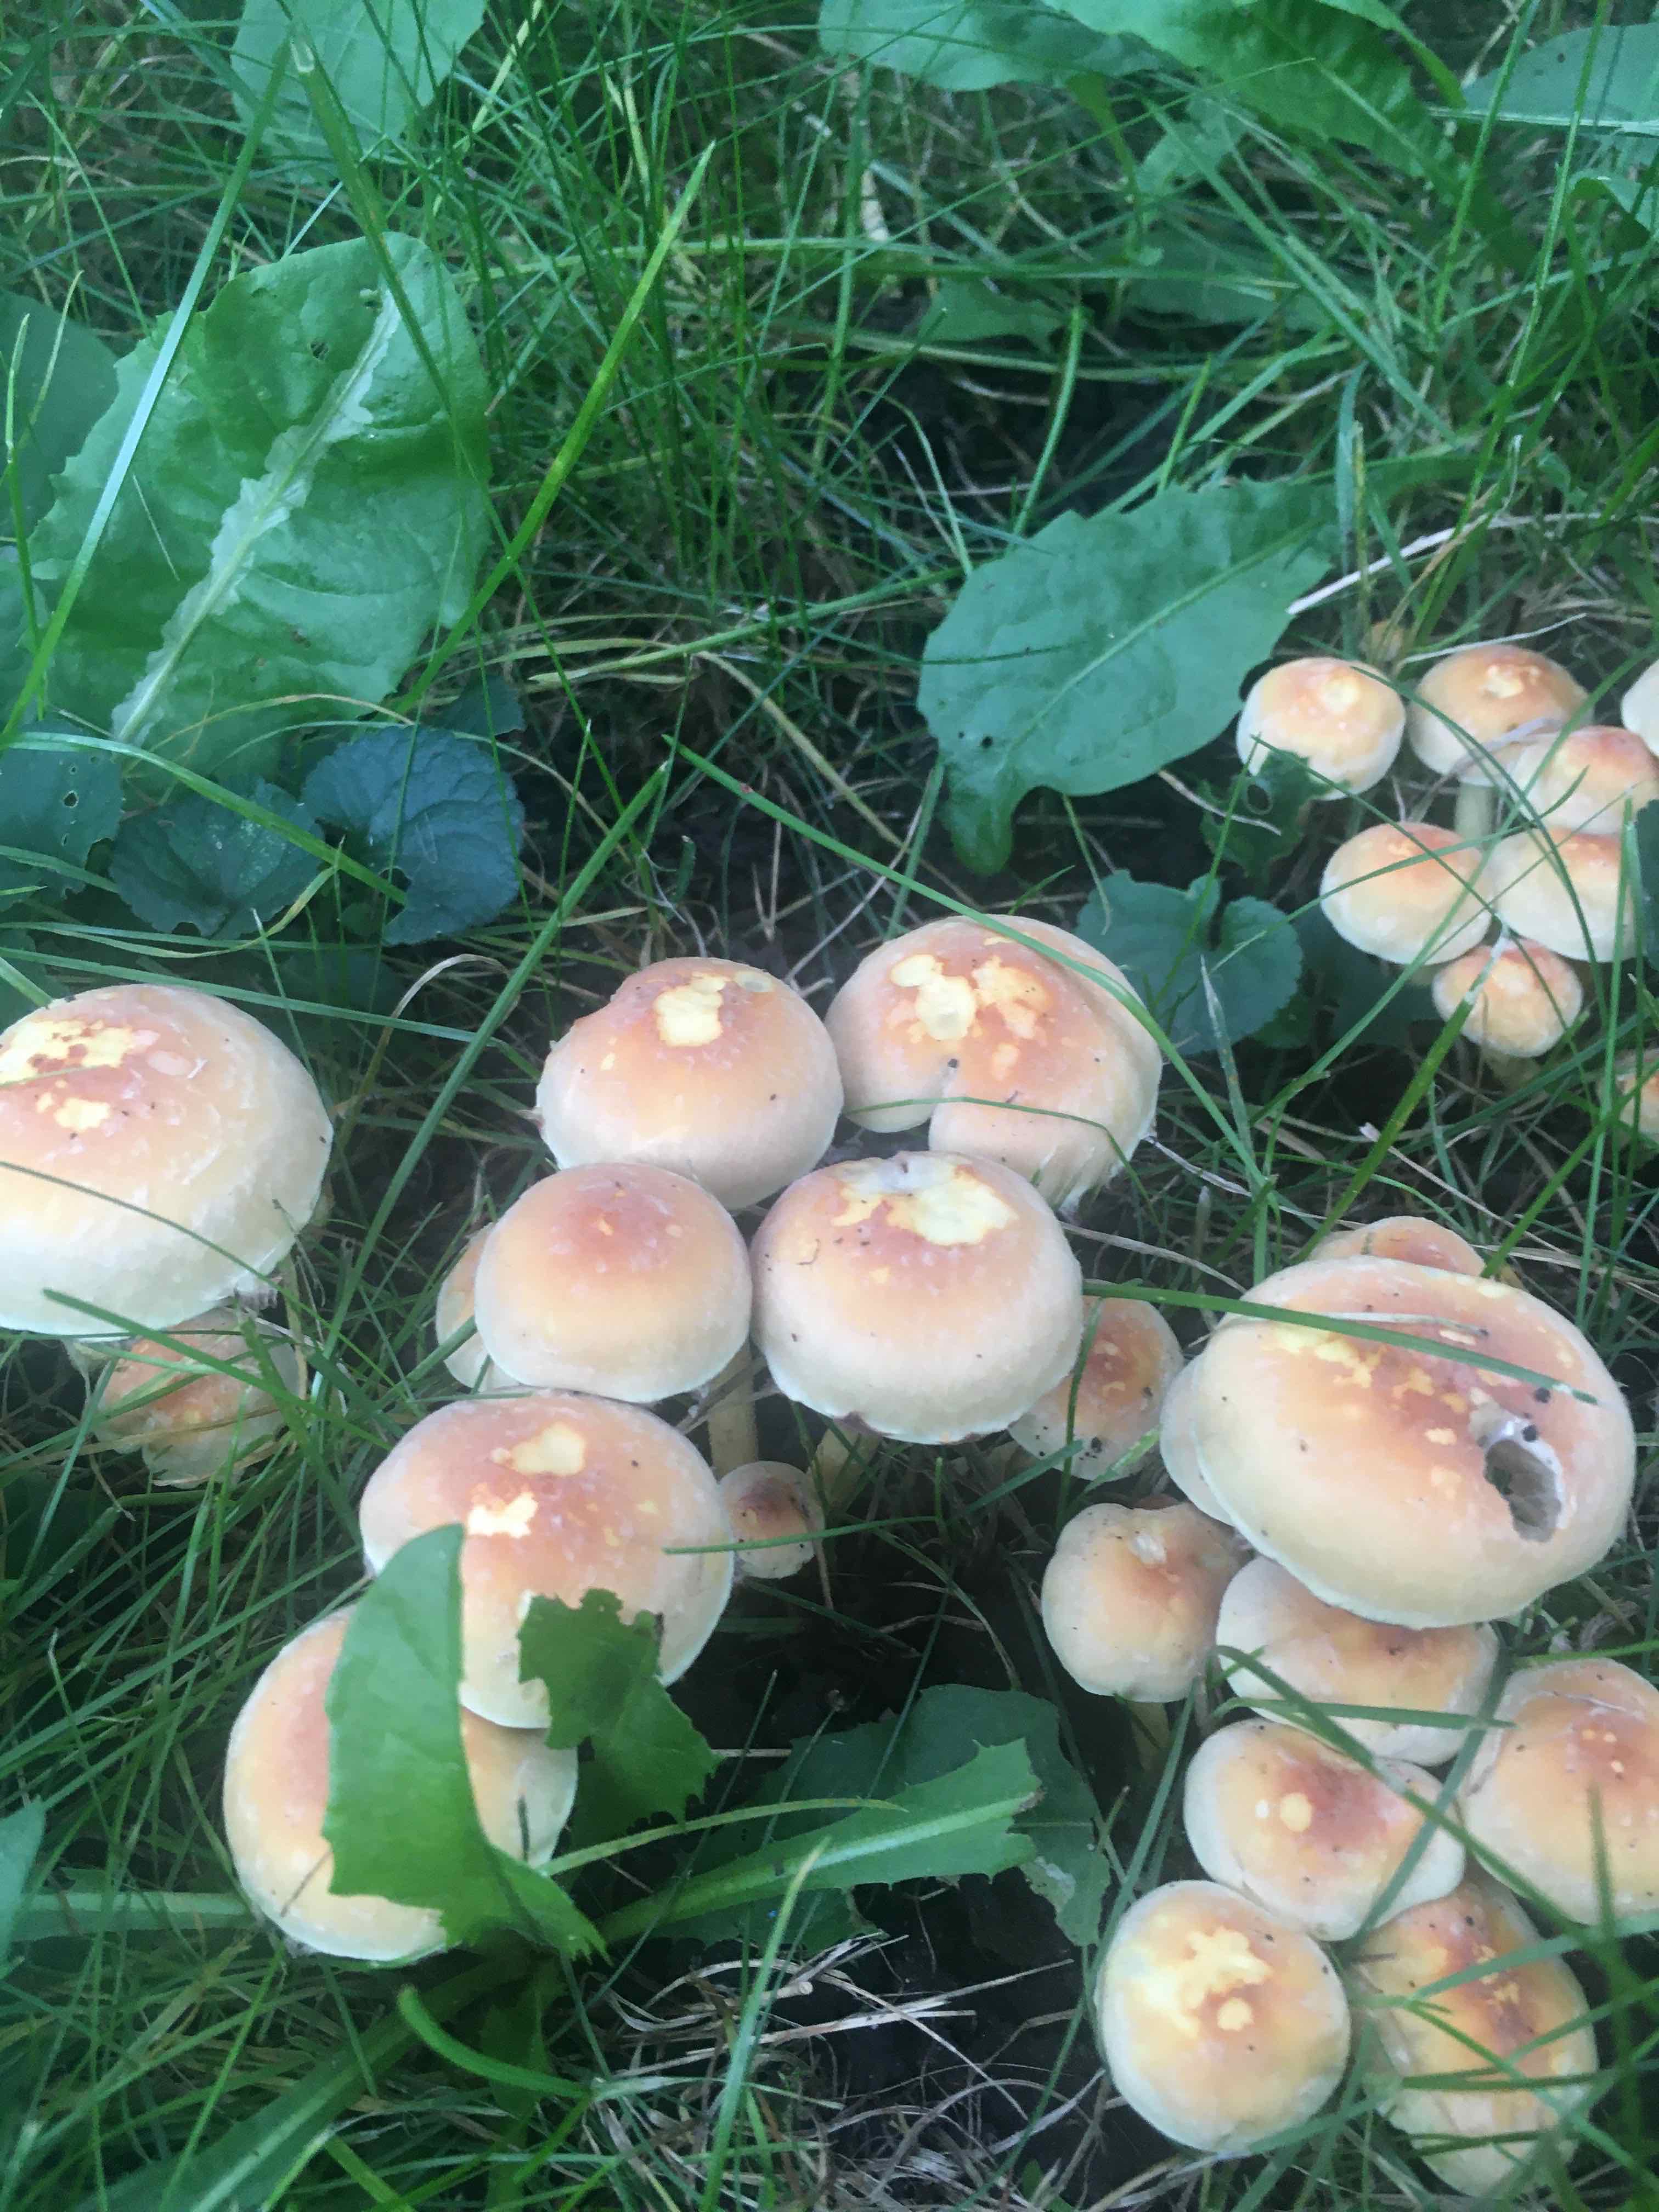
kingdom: Fungi
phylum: Basidiomycota
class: Agaricomycetes
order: Agaricales
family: Strophariaceae
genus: Hypholoma
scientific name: Hypholoma fasciculare
